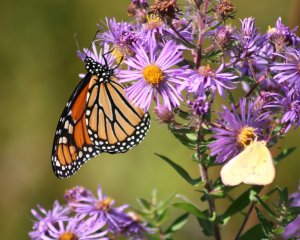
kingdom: Animalia
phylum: Arthropoda
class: Insecta
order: Lepidoptera
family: Nymphalidae
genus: Danaus
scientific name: Danaus plexippus
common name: Monarch
